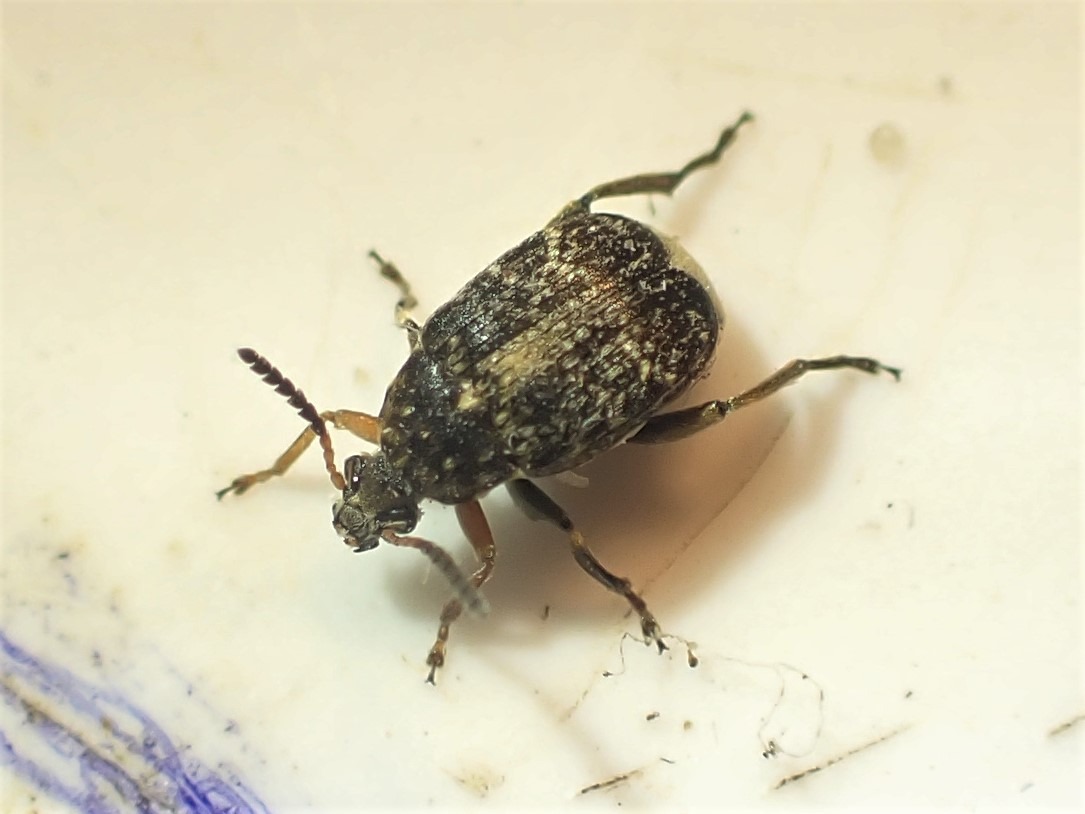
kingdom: Animalia
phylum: Arthropoda
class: Insecta
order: Coleoptera
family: Chrysomelidae
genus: Bruchus
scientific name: Bruchus rufimanus
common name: Hestebønnebille
